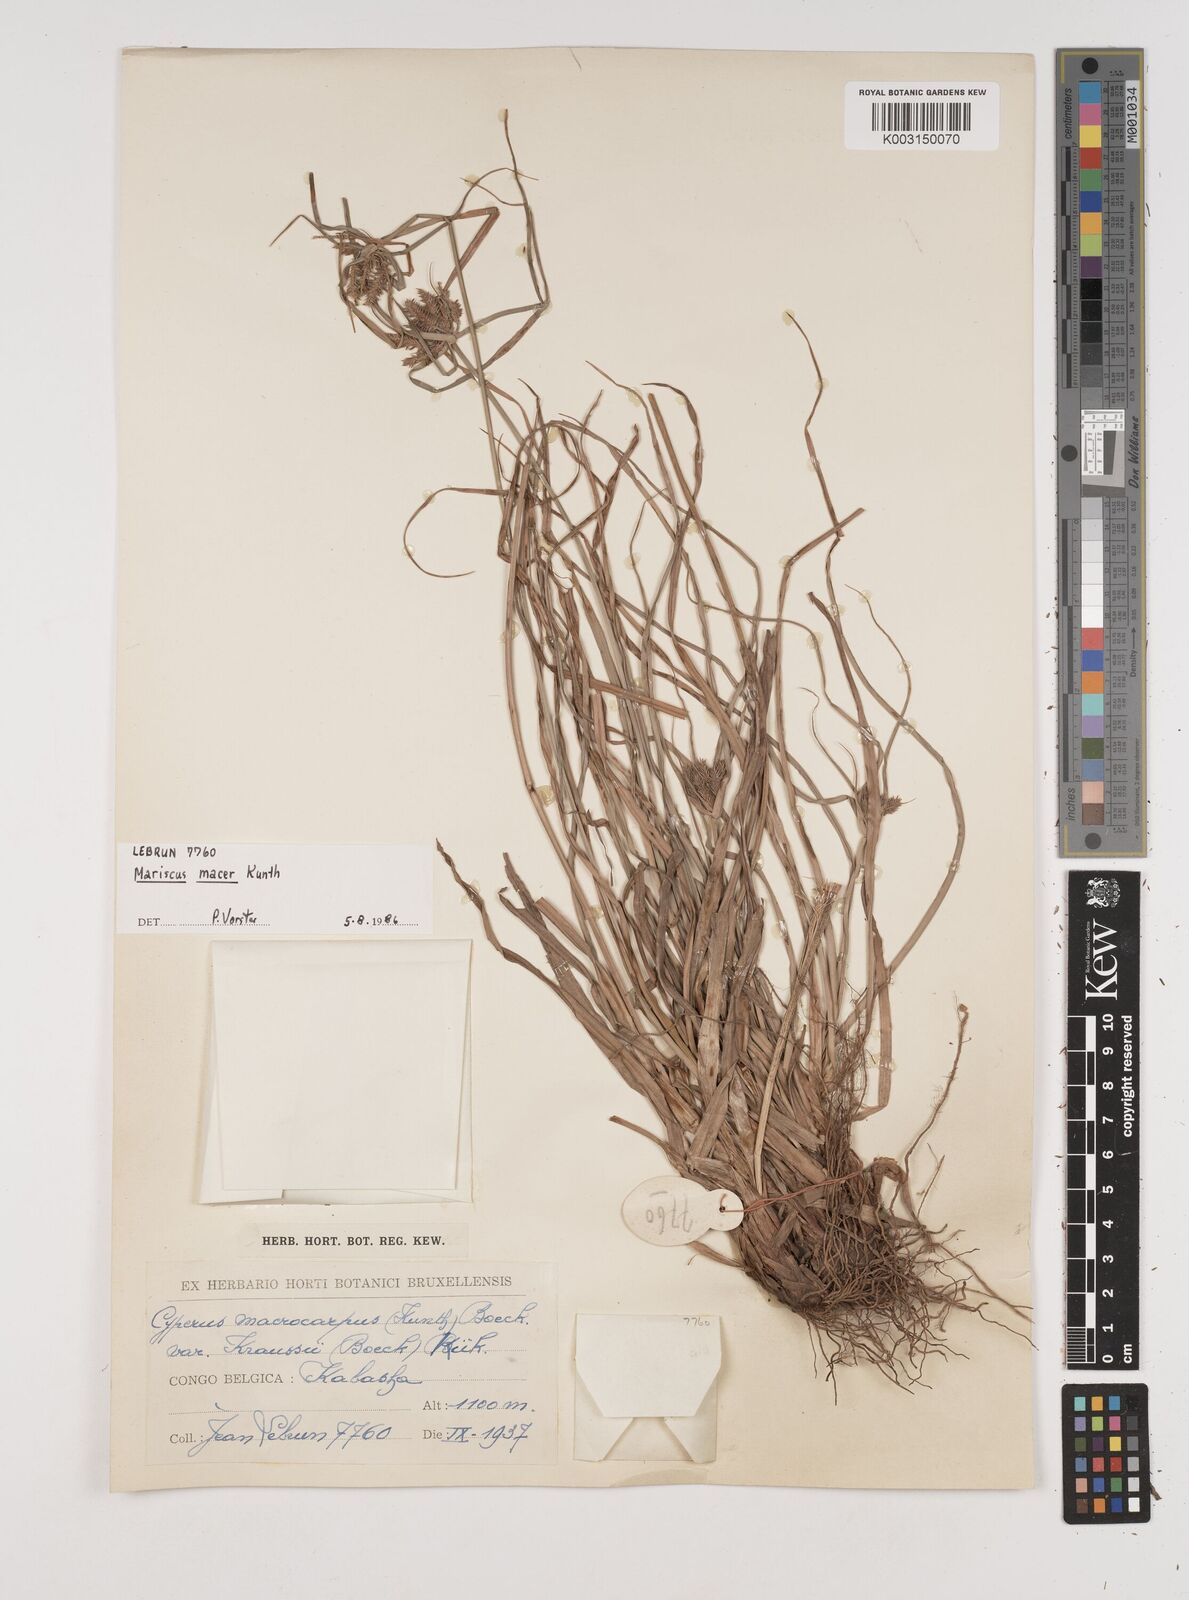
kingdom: Plantae
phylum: Tracheophyta
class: Liliopsida
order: Poales
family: Cyperaceae
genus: Cyperus
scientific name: Cyperus macrocarpus
